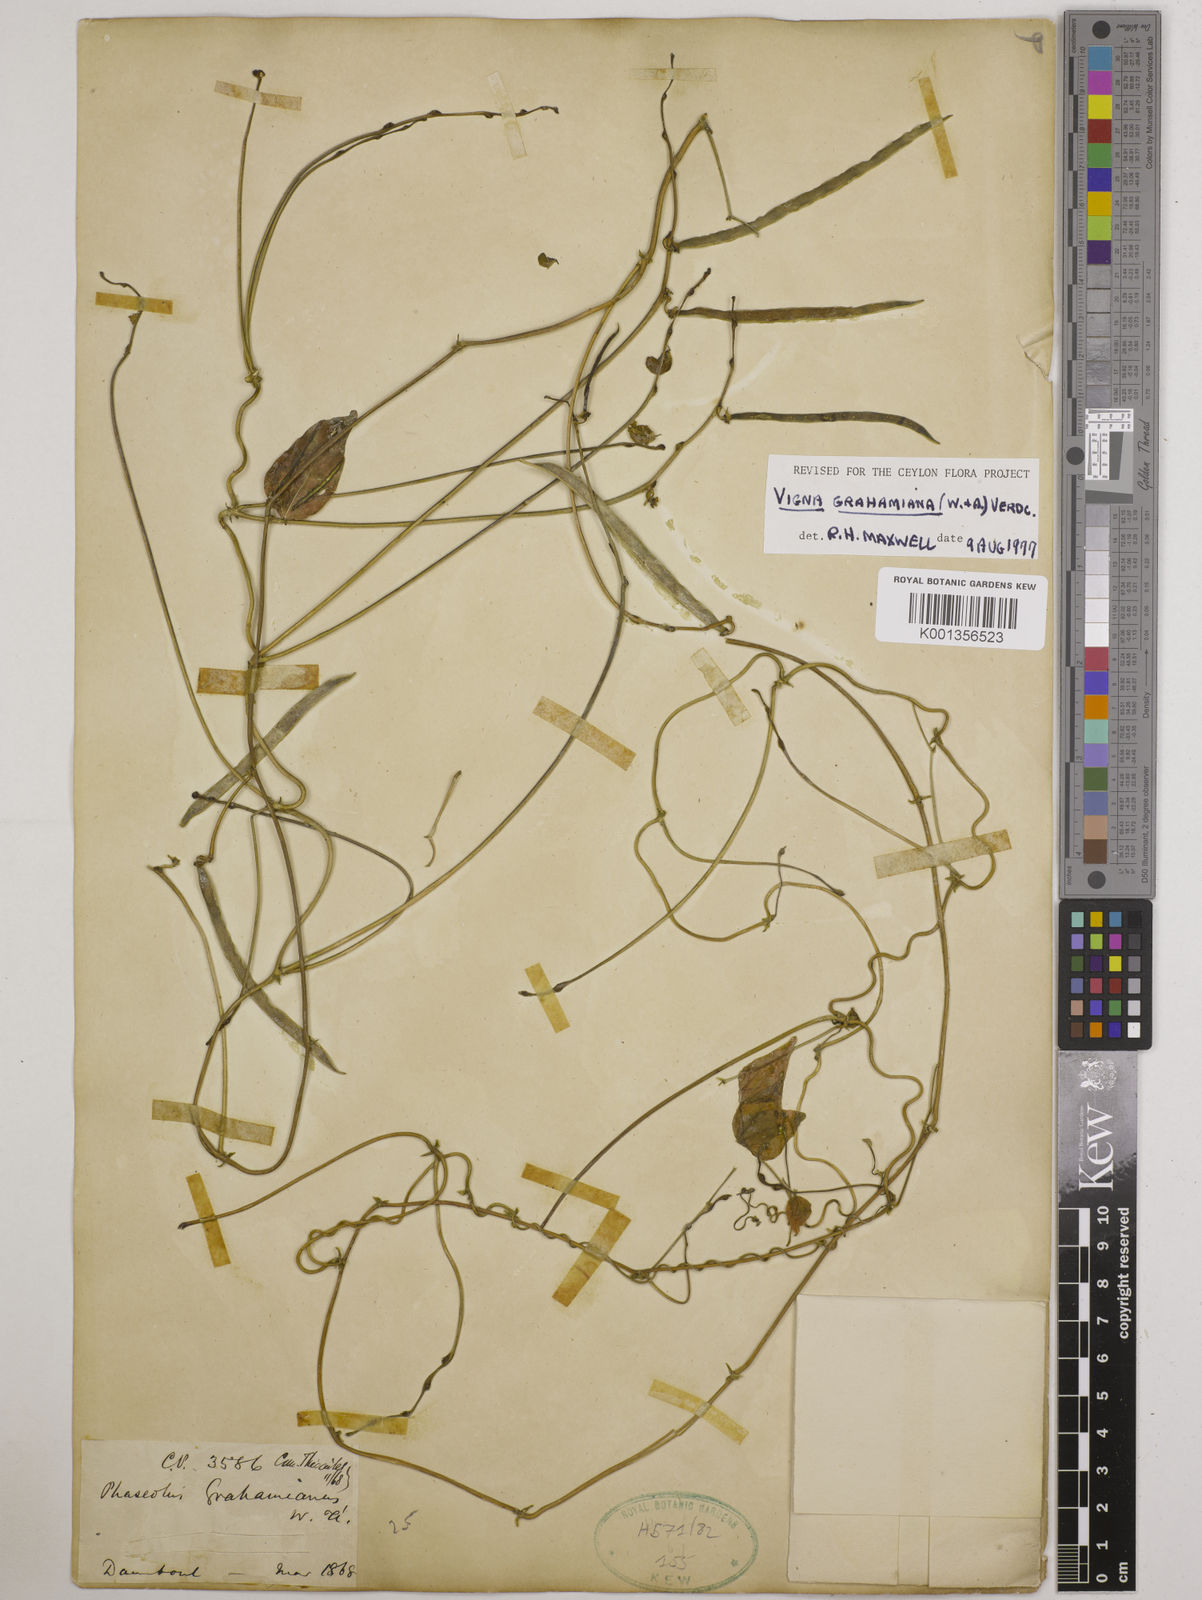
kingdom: Plantae
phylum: Tracheophyta
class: Magnoliopsida
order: Fabales
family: Fabaceae
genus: Wajira
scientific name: Wajira grahamiana
